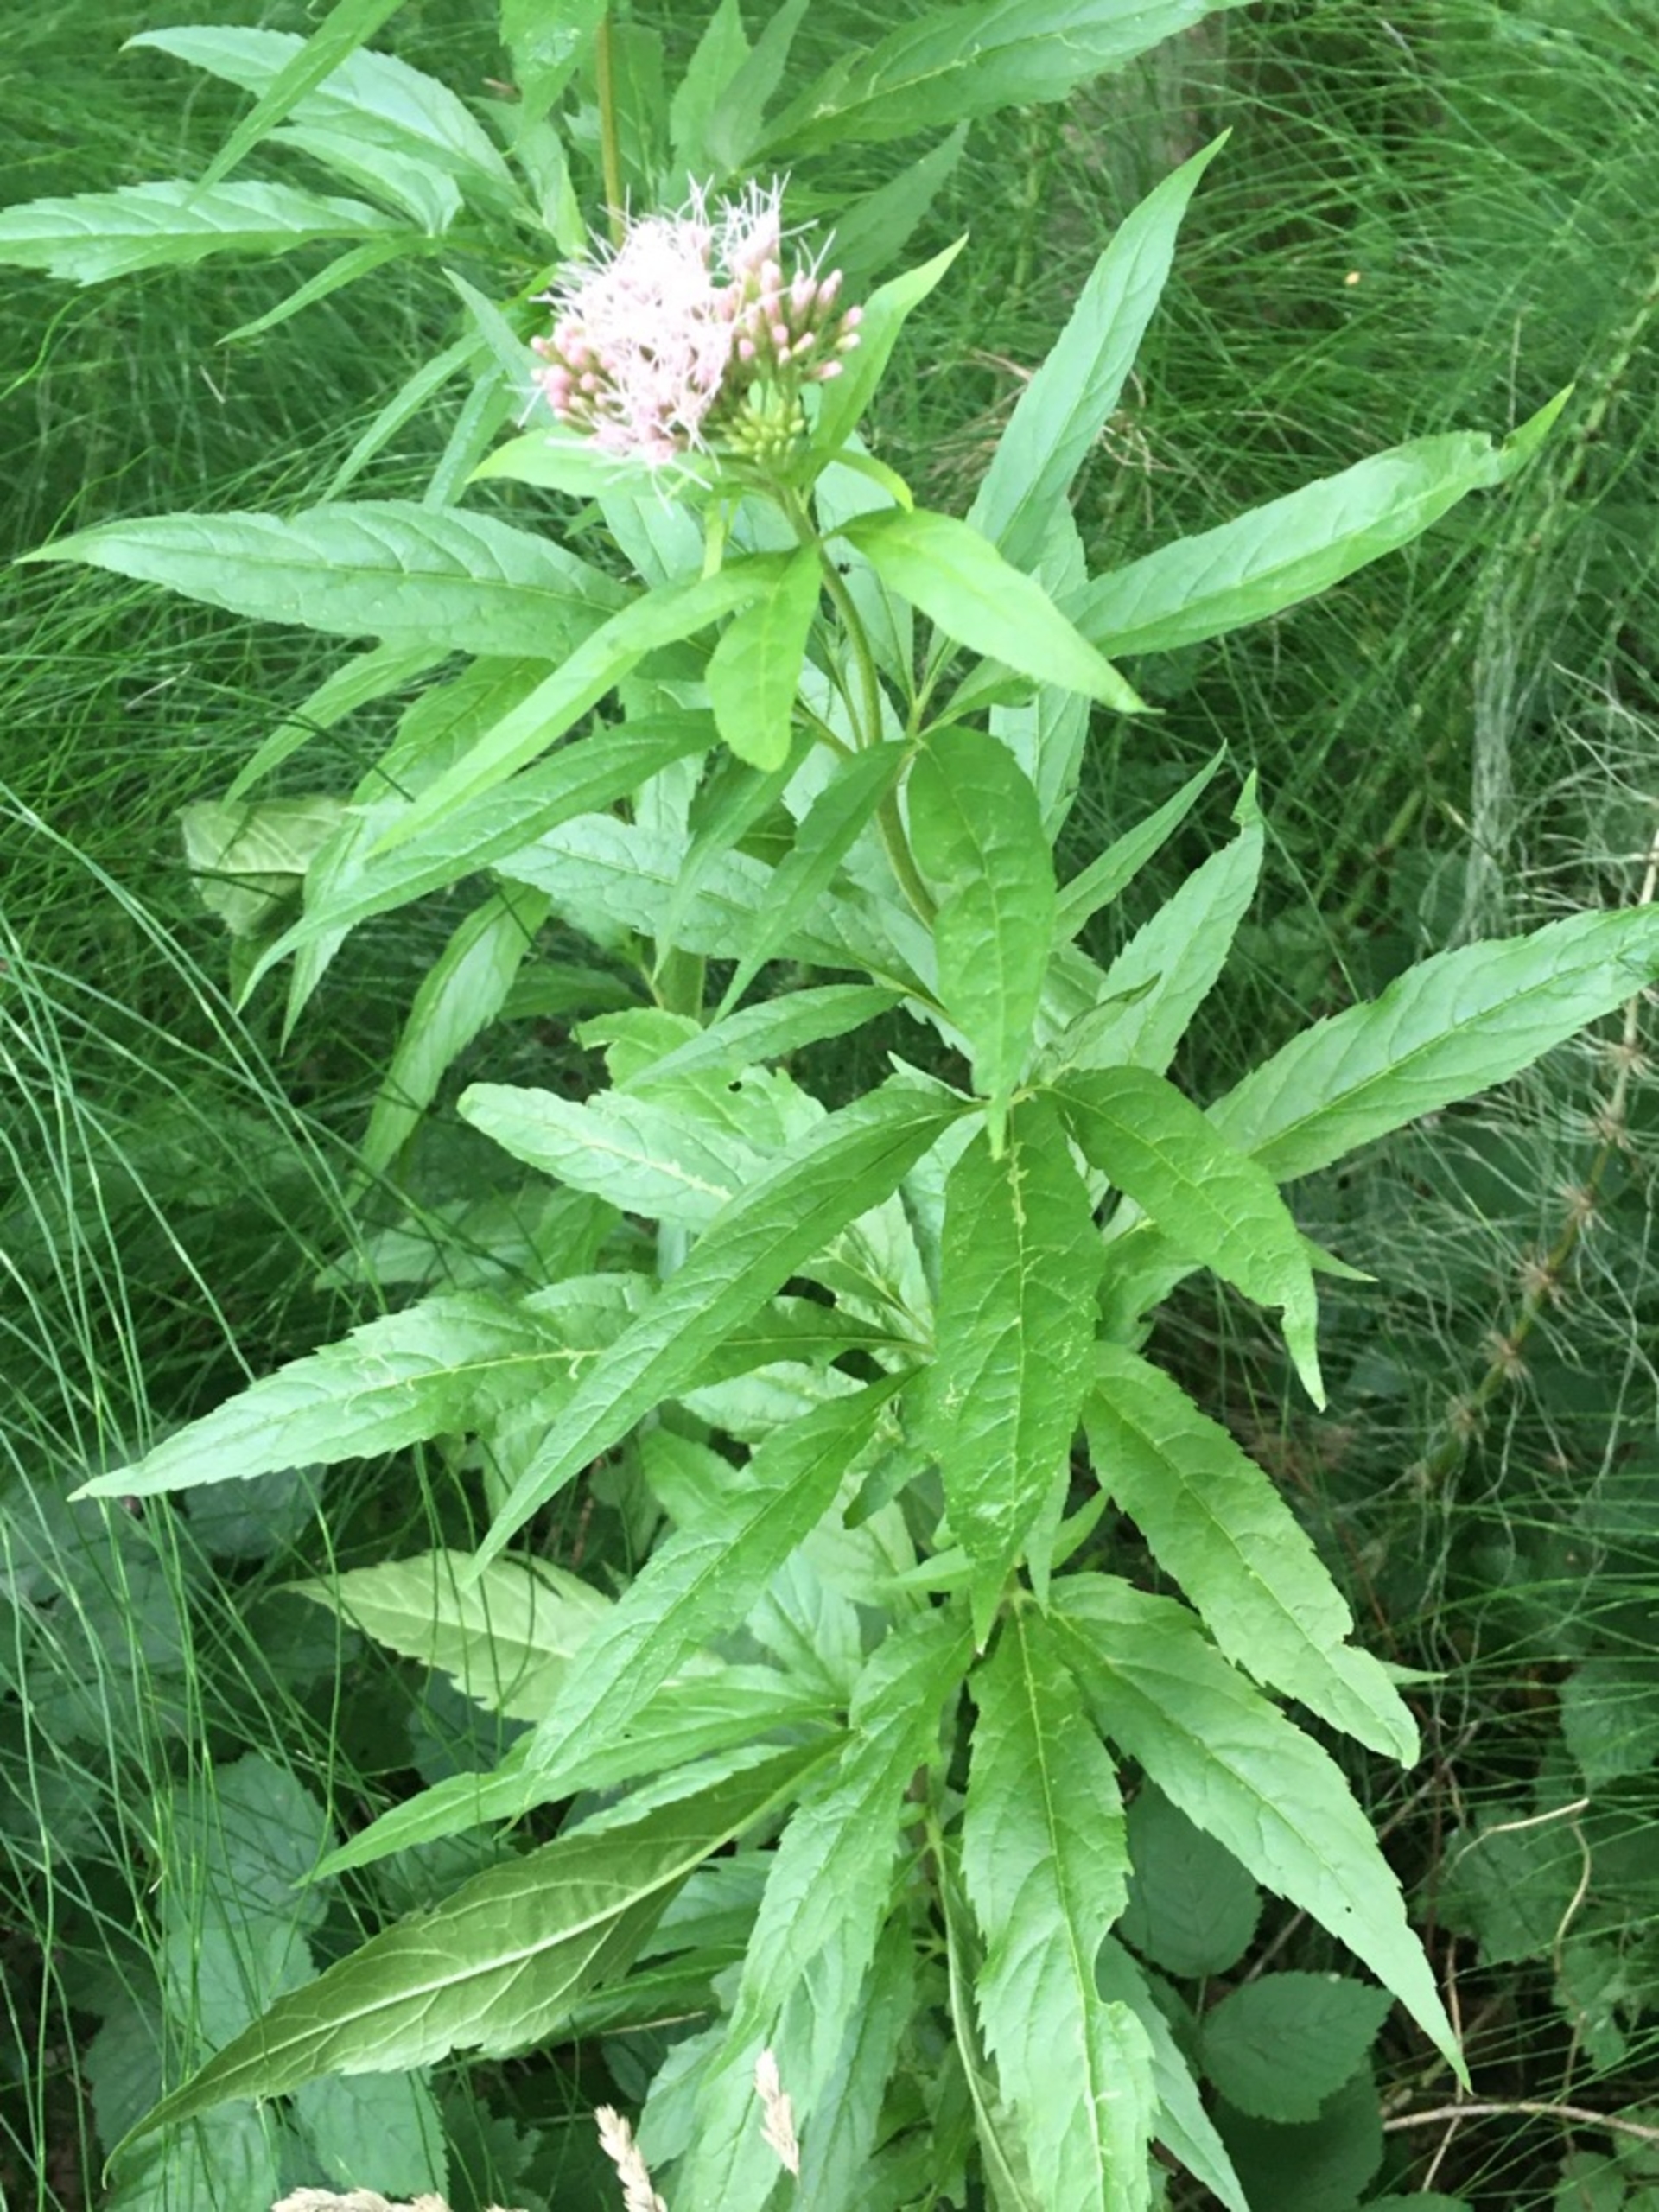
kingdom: Plantae
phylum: Tracheophyta
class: Magnoliopsida
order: Asterales
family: Asteraceae
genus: Eupatorium
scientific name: Eupatorium cannabinum
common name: Hjortetrøst
